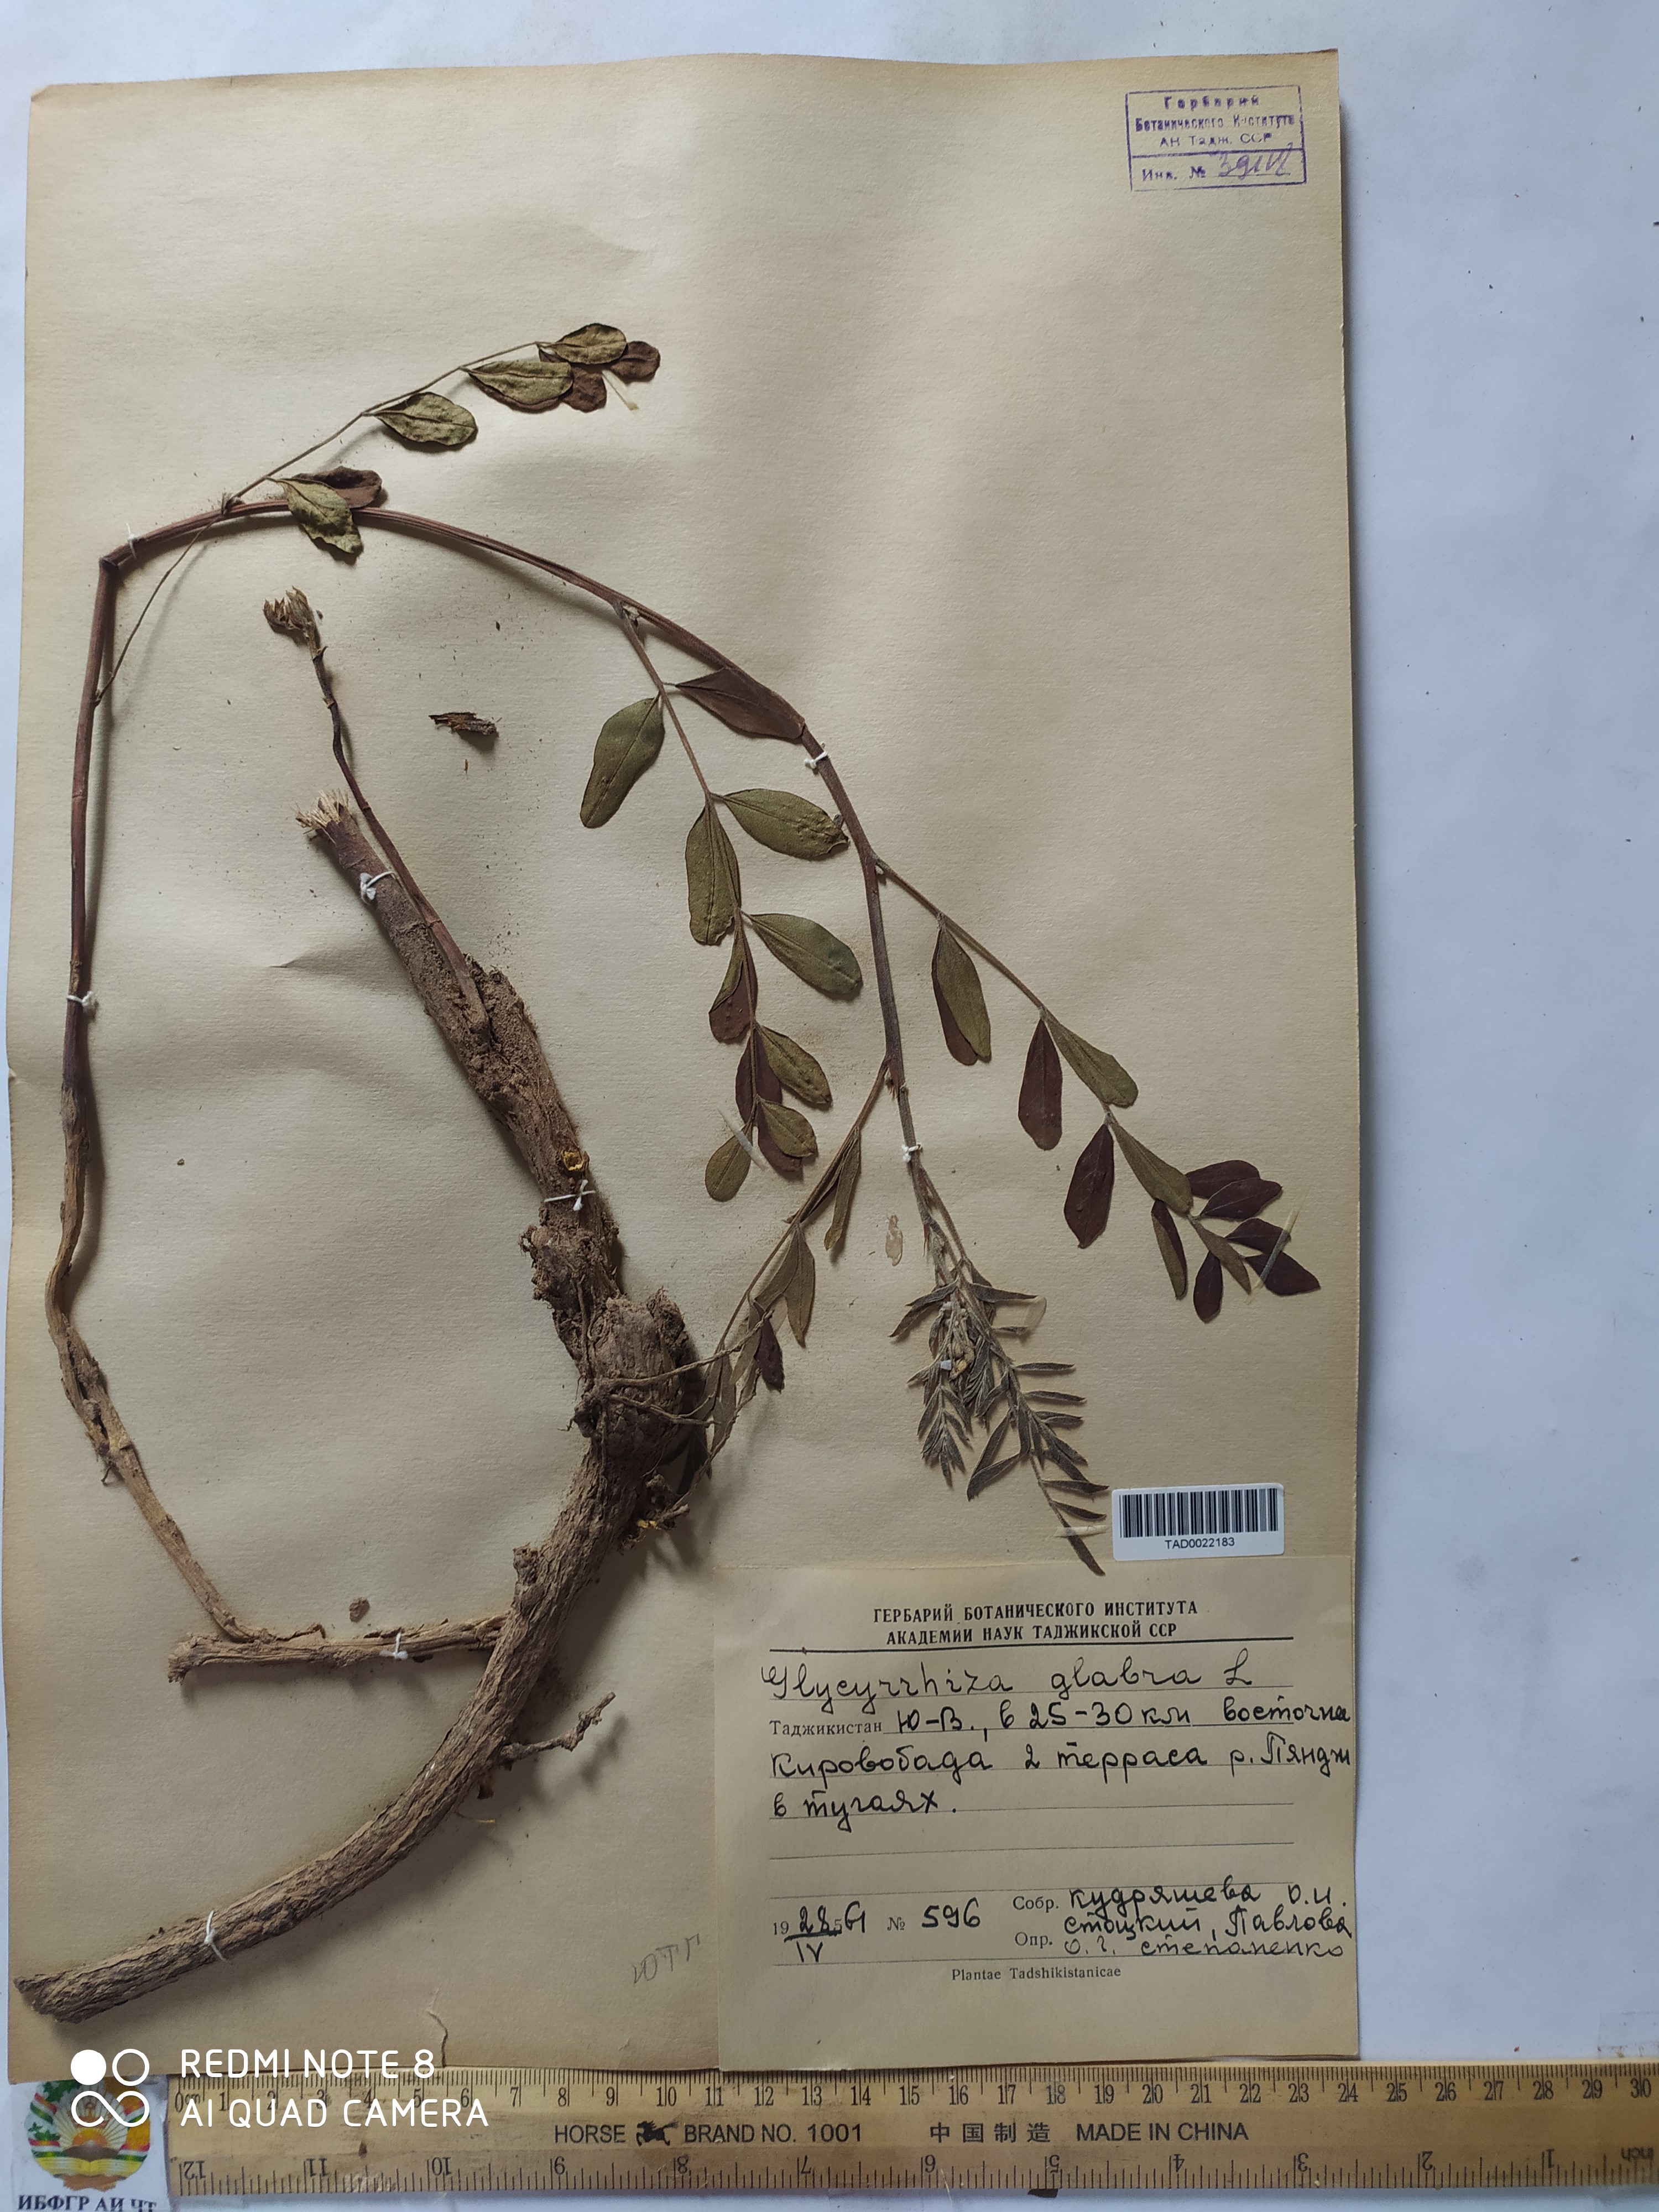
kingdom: Plantae
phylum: Tracheophyta
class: Magnoliopsida
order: Fabales
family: Fabaceae
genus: Glycyrrhiza
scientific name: Glycyrrhiza glabra
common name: Liquorice
